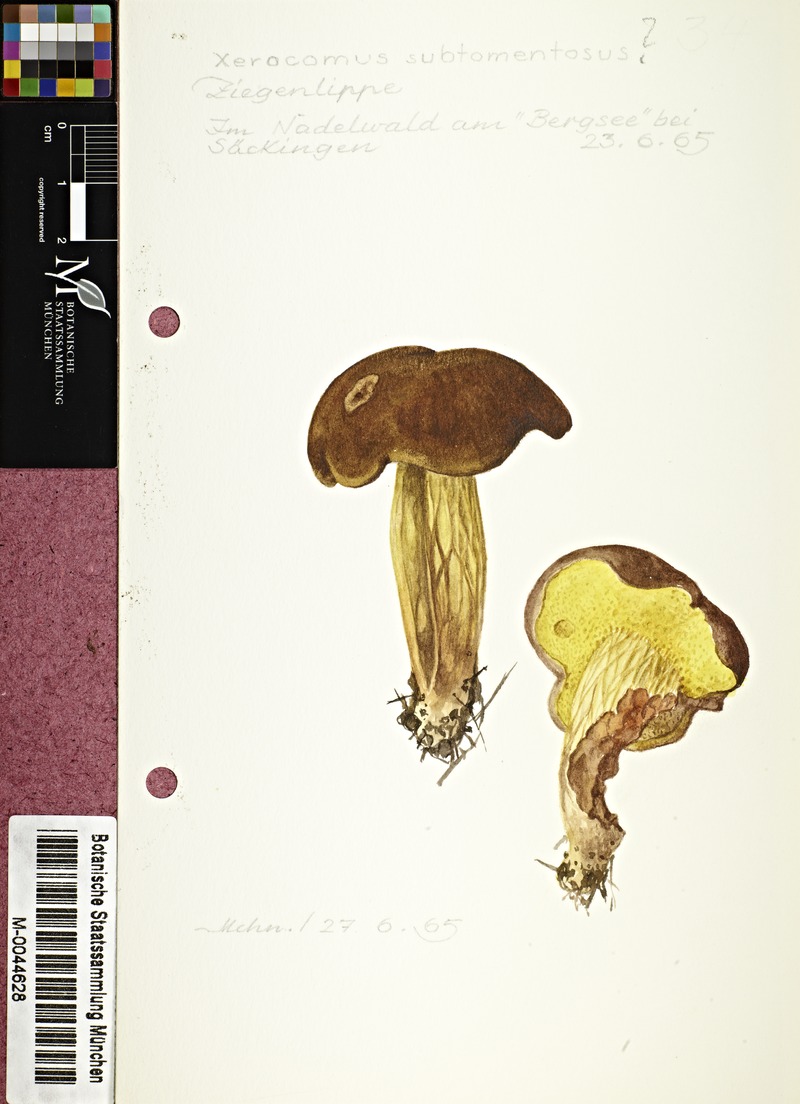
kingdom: Fungi
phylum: Basidiomycota
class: Agaricomycetes
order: Boletales
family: Boletaceae
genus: Xerocomus
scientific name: Xerocomus subtomentosus
